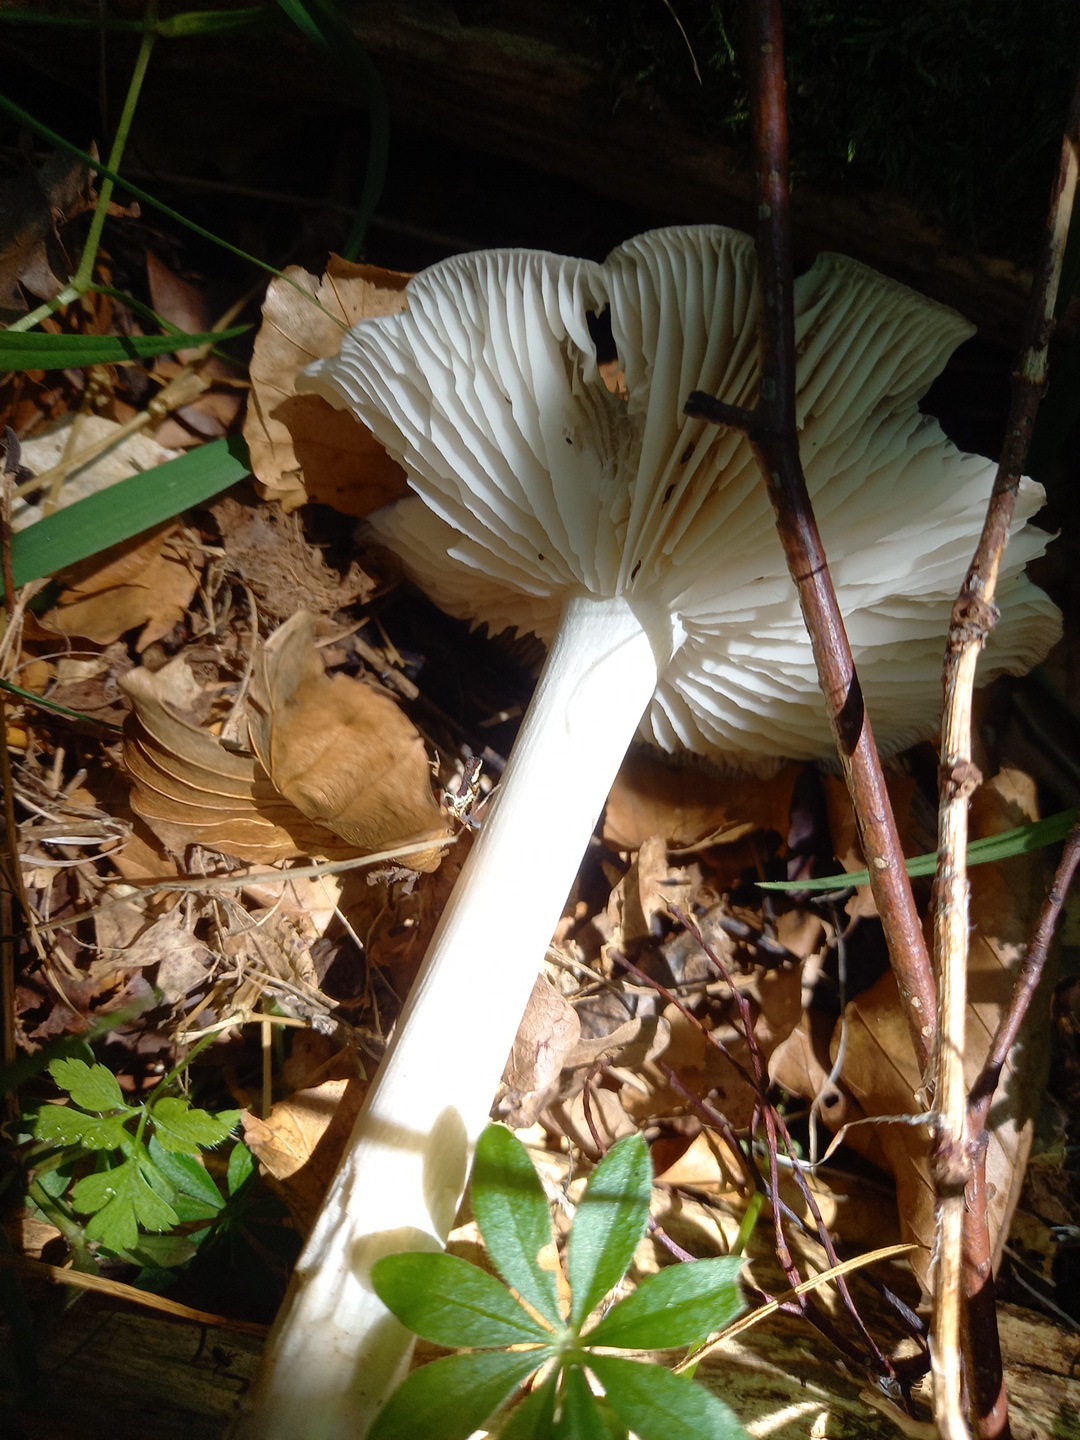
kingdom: Fungi
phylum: Basidiomycota
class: Agaricomycetes
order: Agaricales
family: Tricholomataceae
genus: Megacollybia
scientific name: Megacollybia platyphylla
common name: bredbladet væbnerhat
